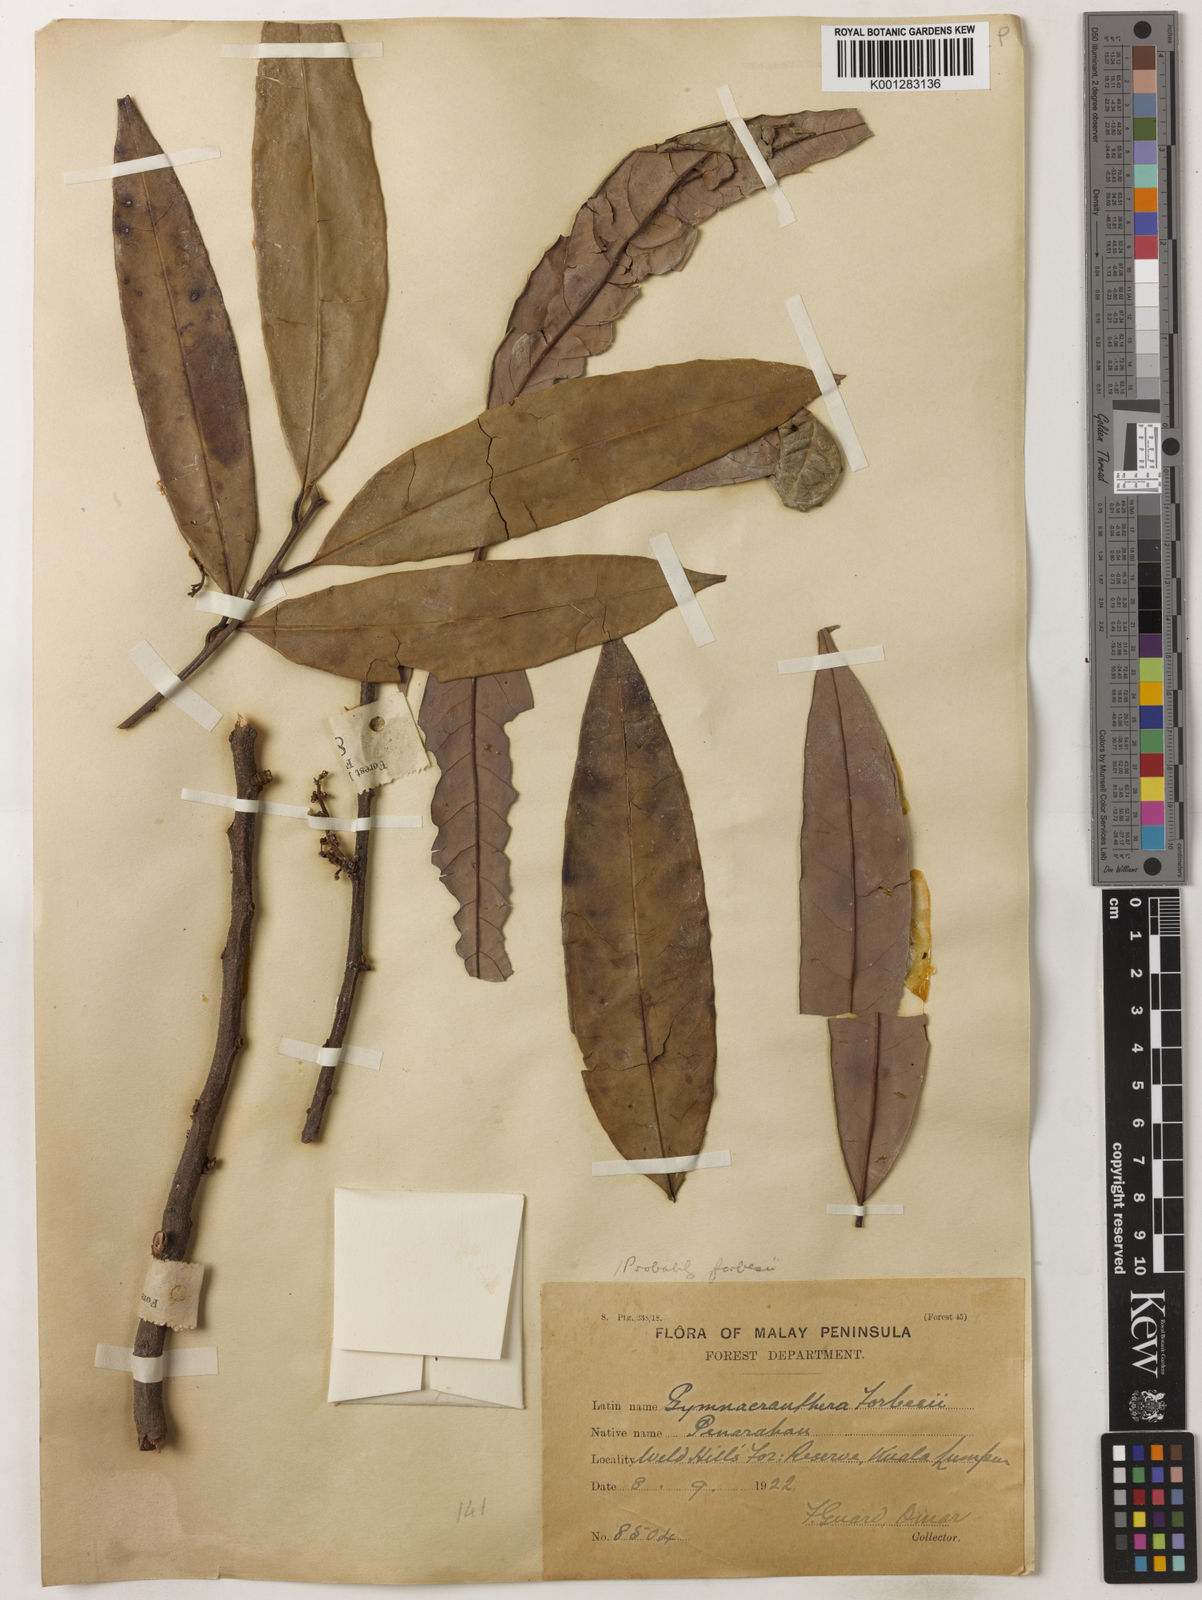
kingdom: Plantae
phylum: Tracheophyta
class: Magnoliopsida
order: Magnoliales
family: Myristicaceae
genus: Gymnacranthera
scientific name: Gymnacranthera farquhariana
